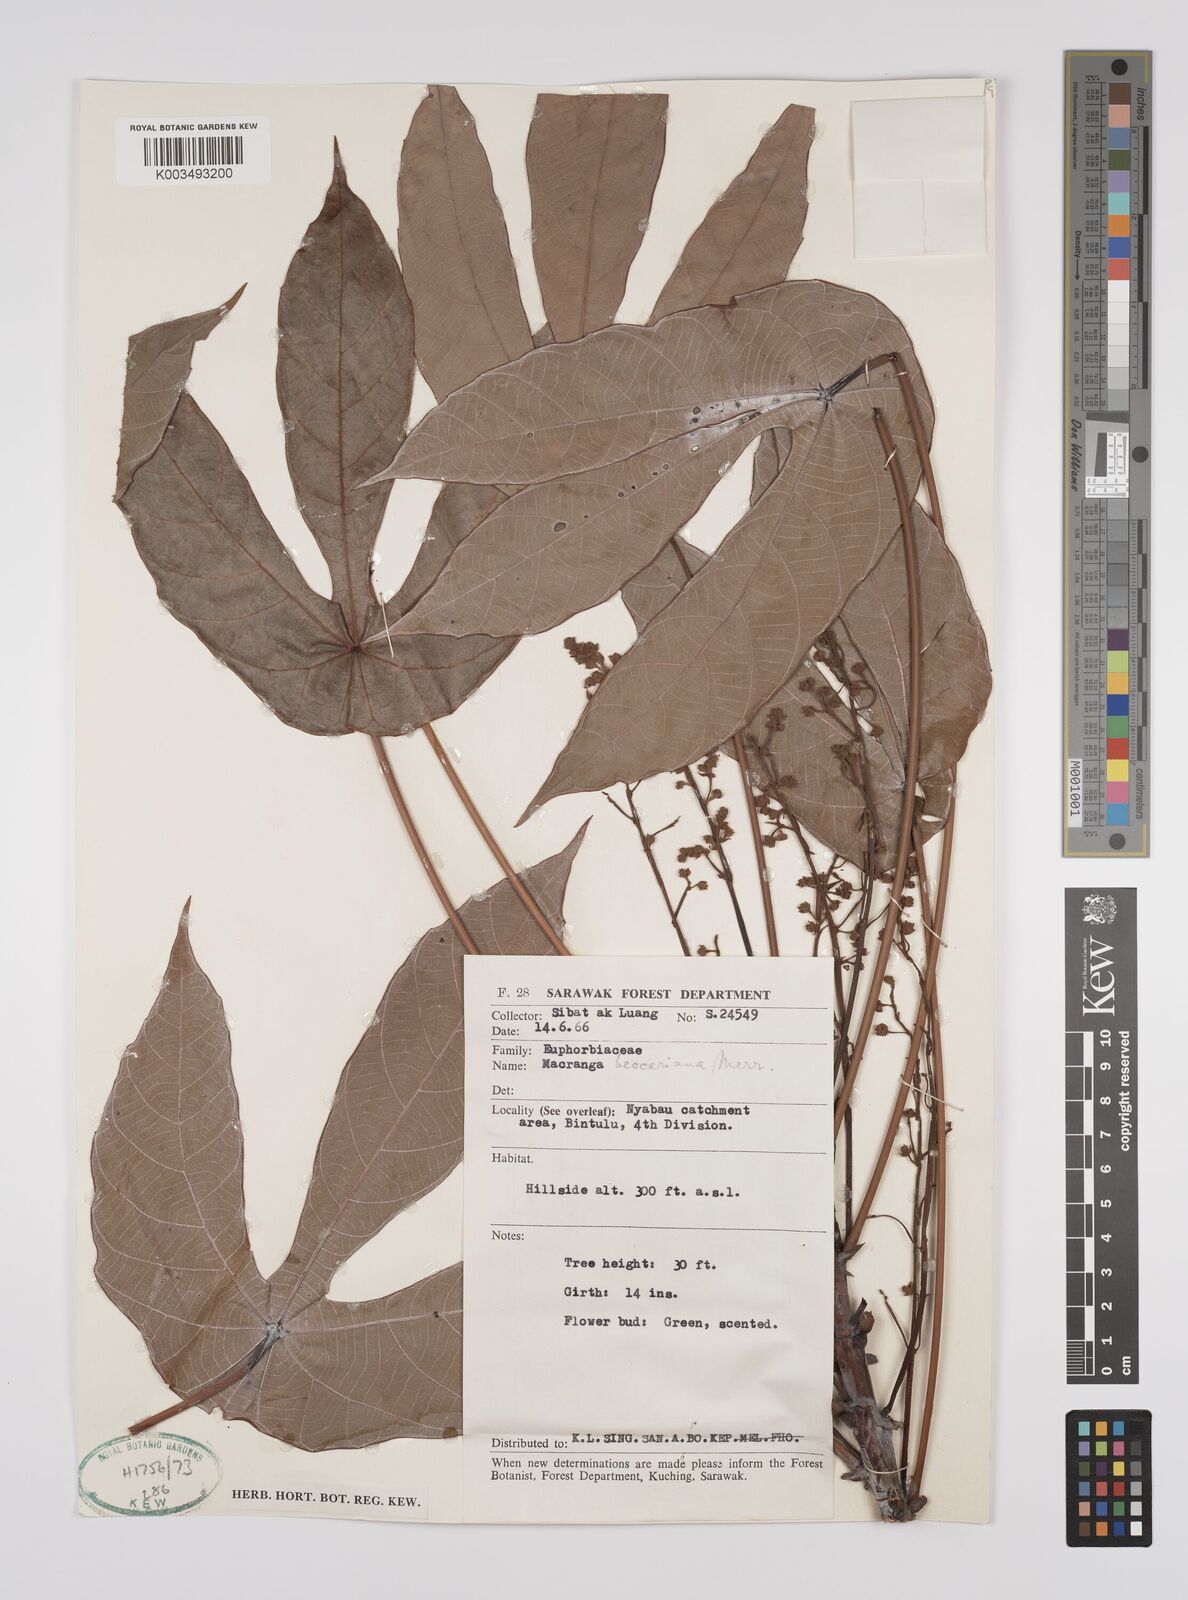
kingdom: Plantae
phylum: Tracheophyta
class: Magnoliopsida
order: Malpighiales
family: Euphorbiaceae
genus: Macaranga
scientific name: Macaranga beccariana
